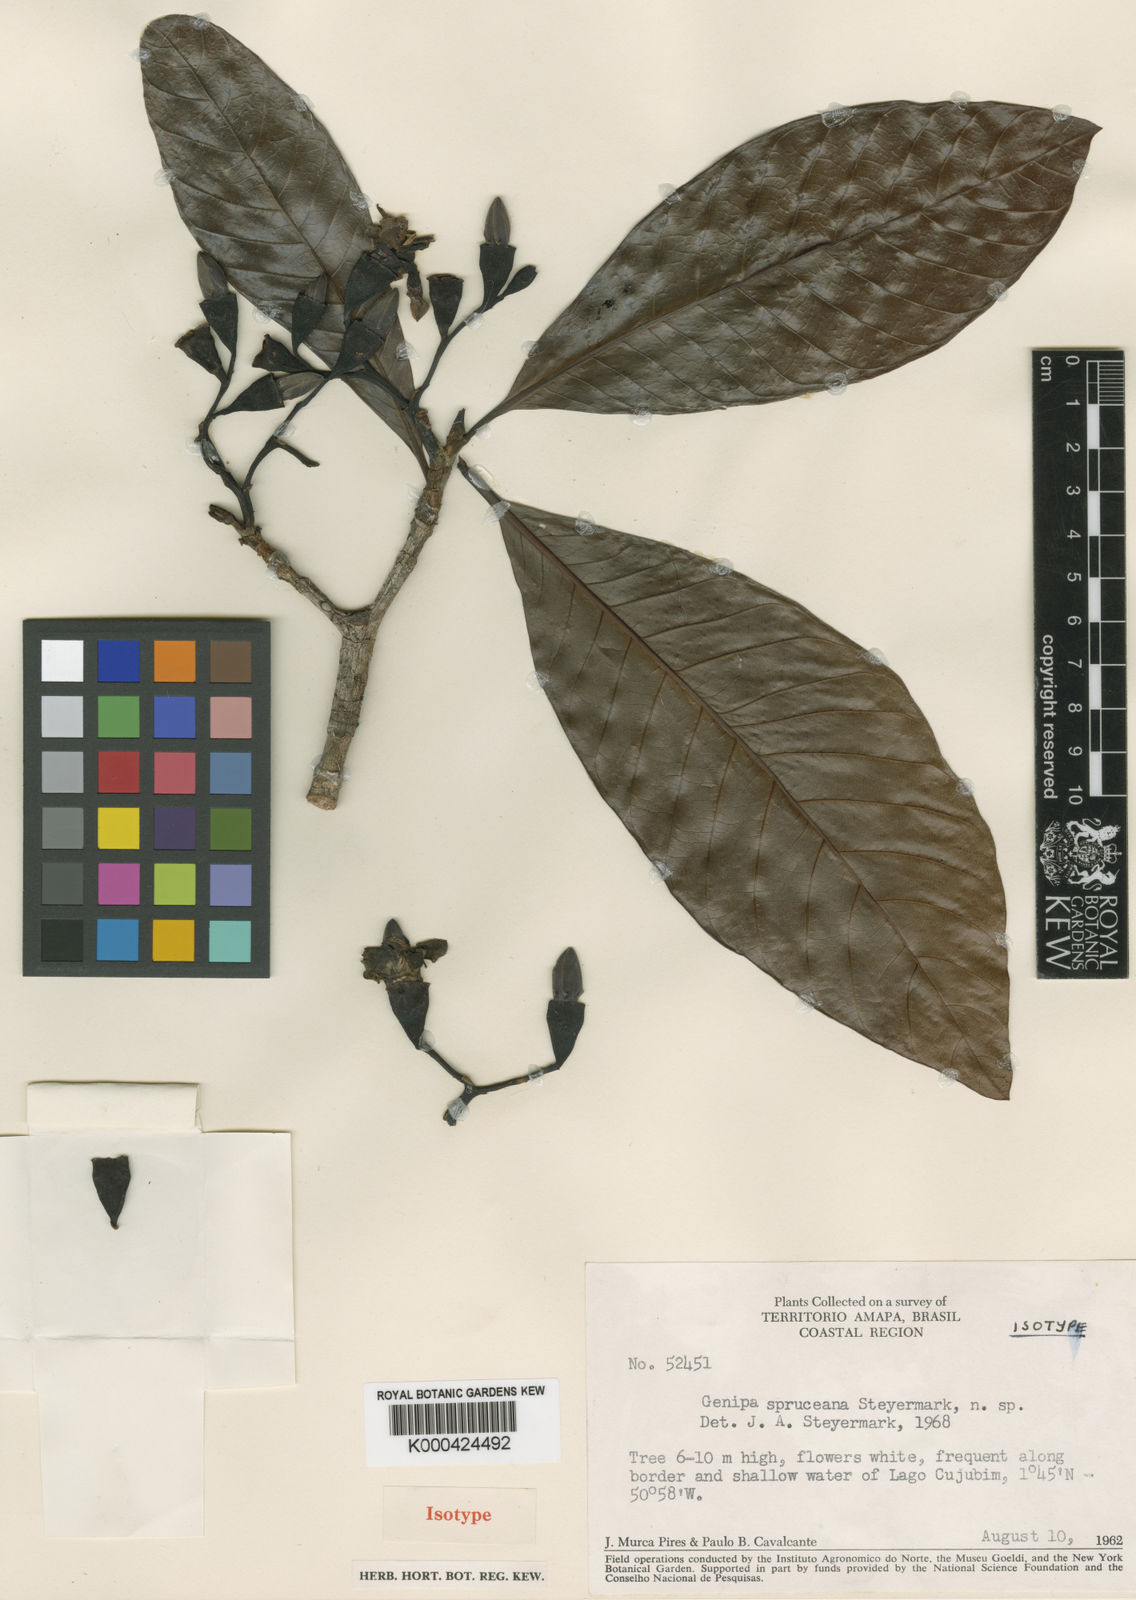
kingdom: Plantae
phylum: Tracheophyta
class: Magnoliopsida
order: Gentianales
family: Rubiaceae
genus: Genipa
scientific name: Genipa americana
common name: Genipap
